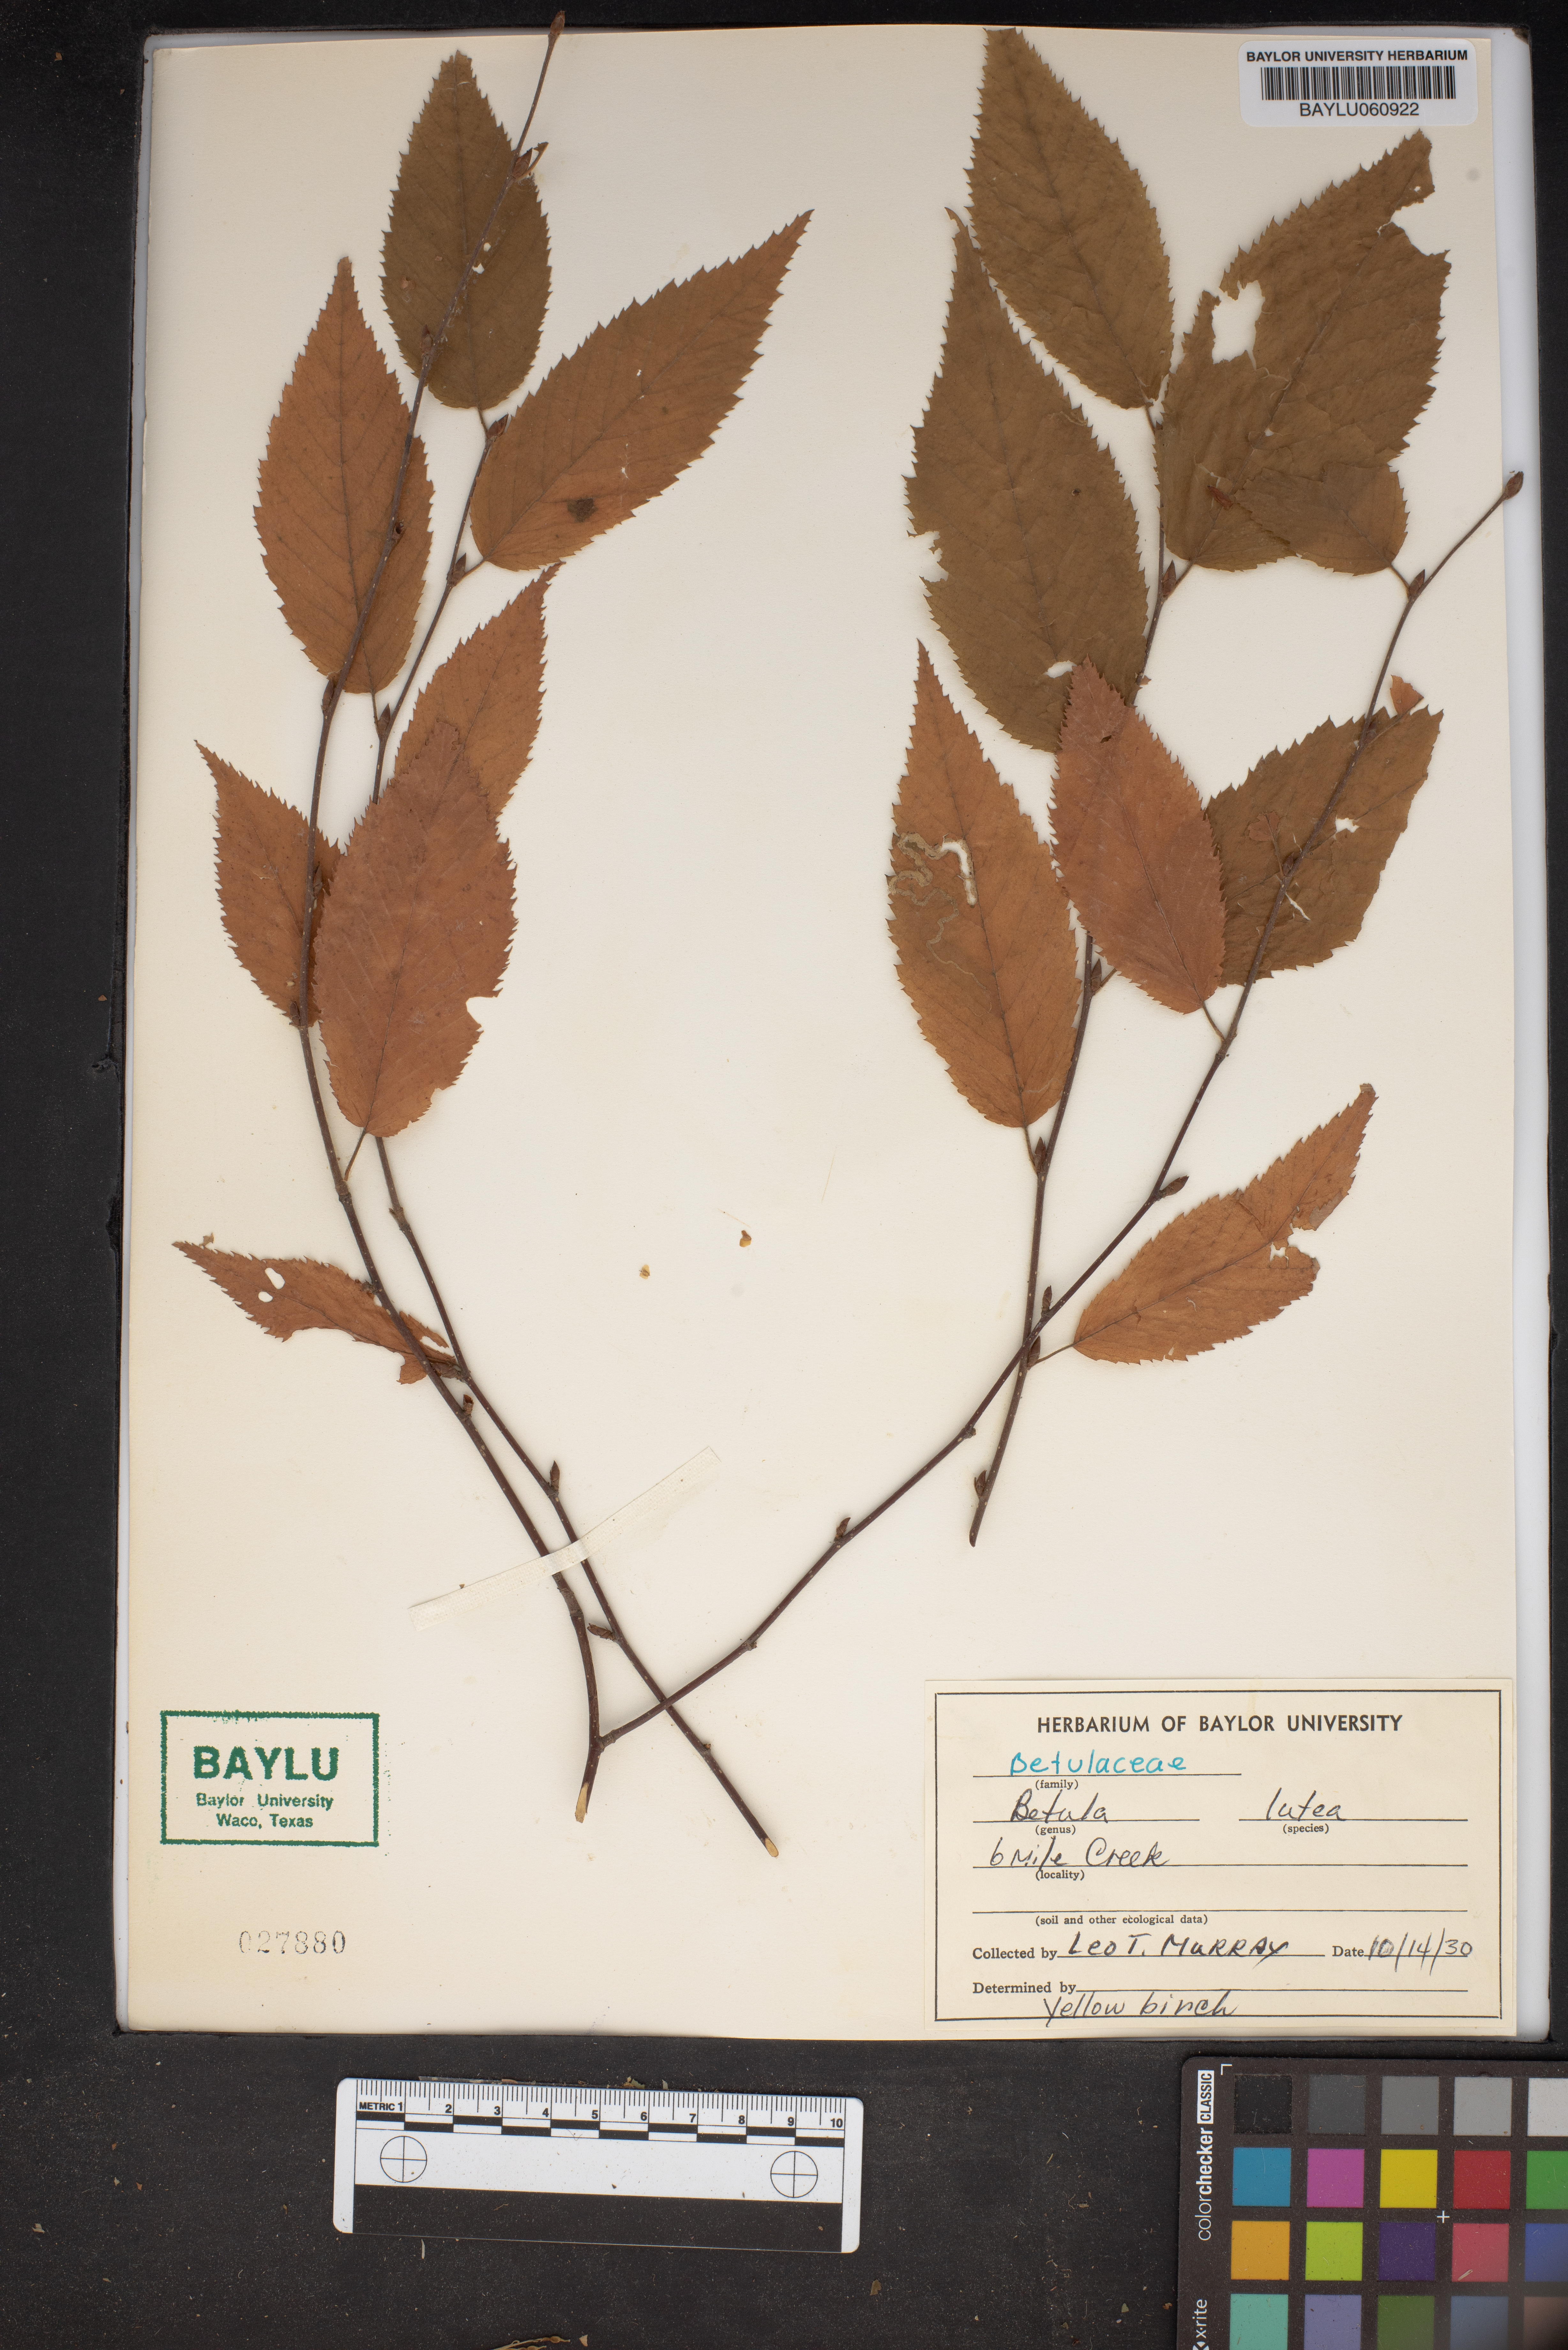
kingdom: Plantae
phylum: Tracheophyta
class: Magnoliopsida
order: Fagales
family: Betulaceae
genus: Betula
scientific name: Betula alleghaniensis
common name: Yellow birch
